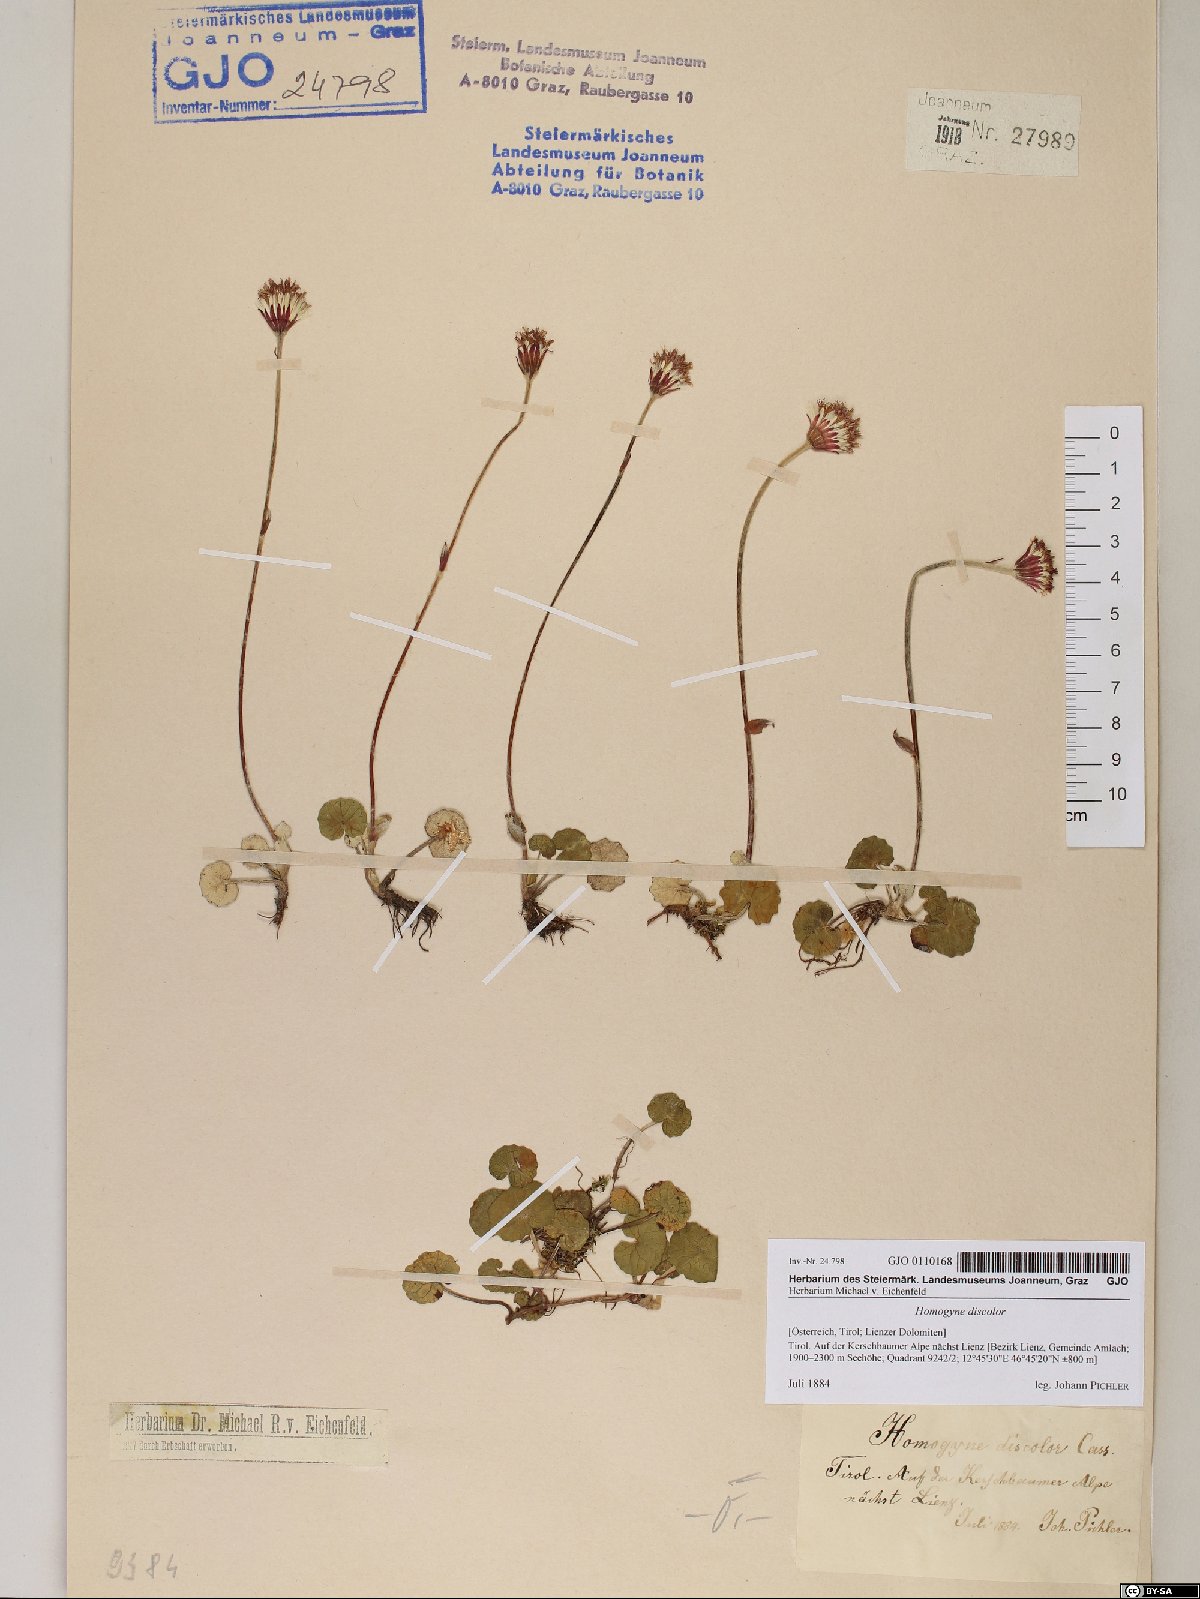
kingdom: Plantae
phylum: Tracheophyta
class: Magnoliopsida
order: Asterales
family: Asteraceae
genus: Homogyne
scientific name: Homogyne discolor
